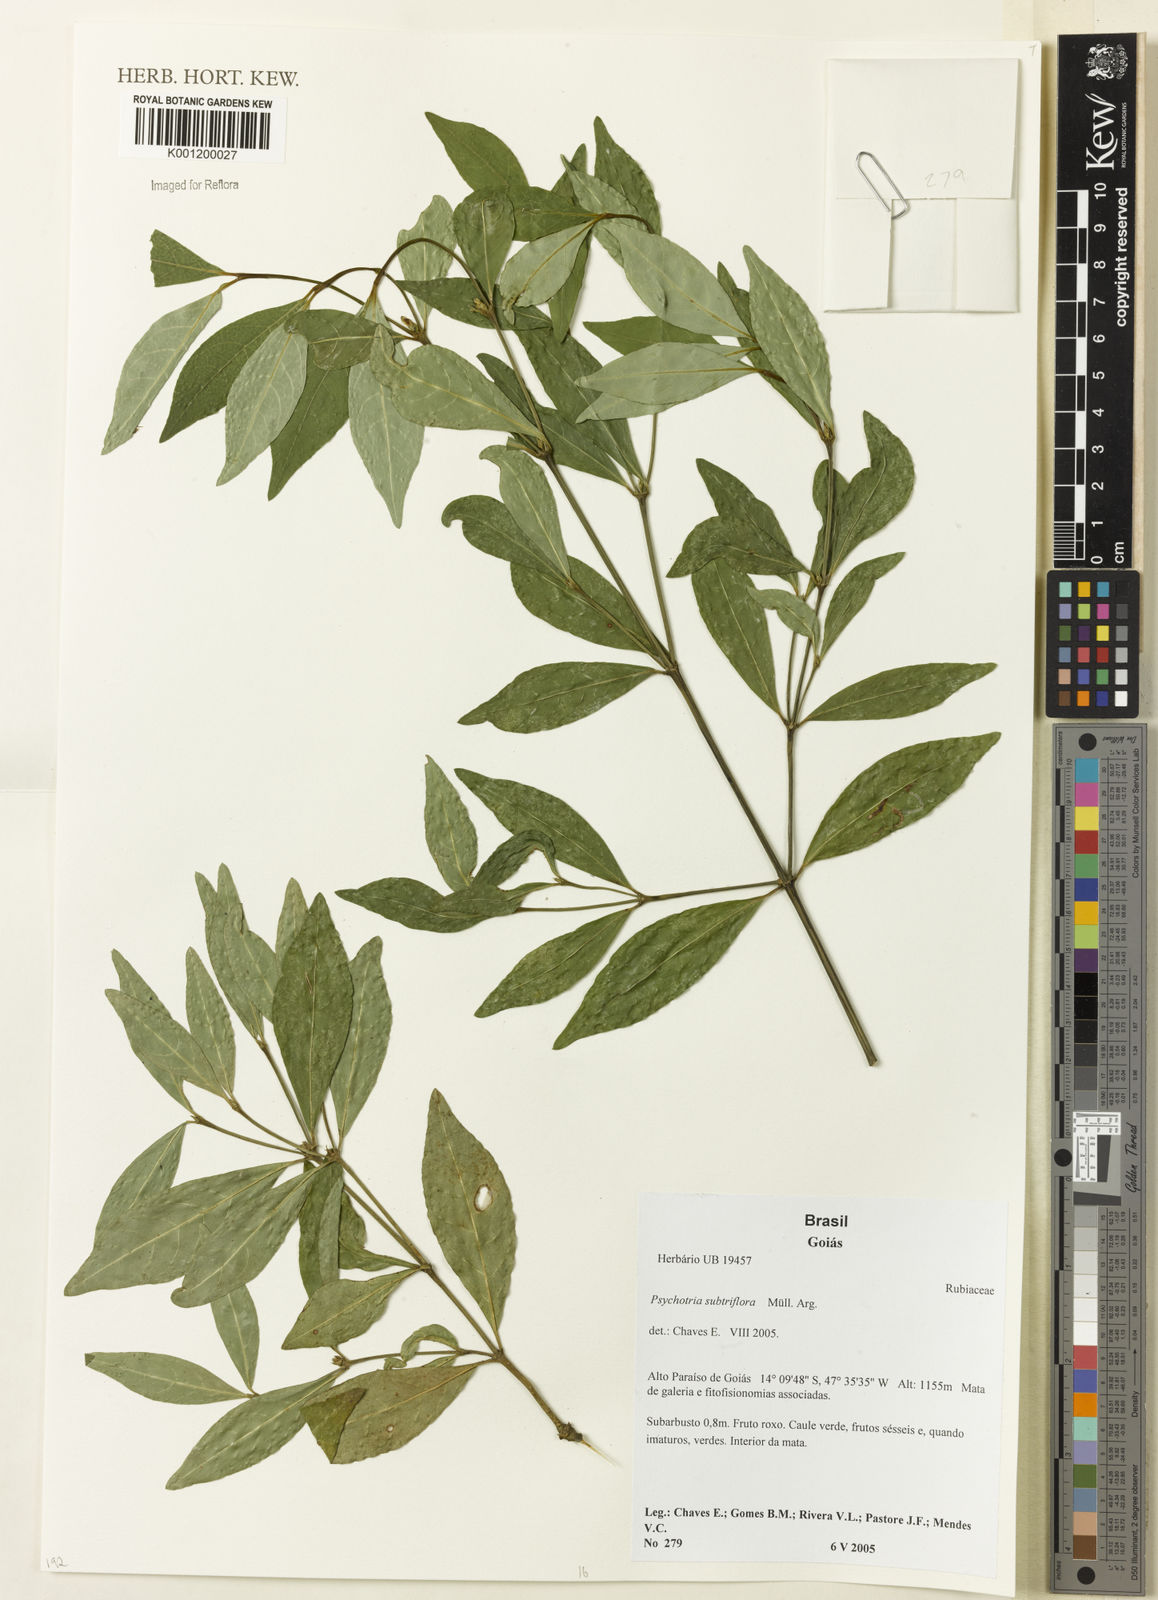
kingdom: Plantae
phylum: Tracheophyta
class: Magnoliopsida
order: Gentianales
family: Rubiaceae
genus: Psychotria
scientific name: Psychotria
